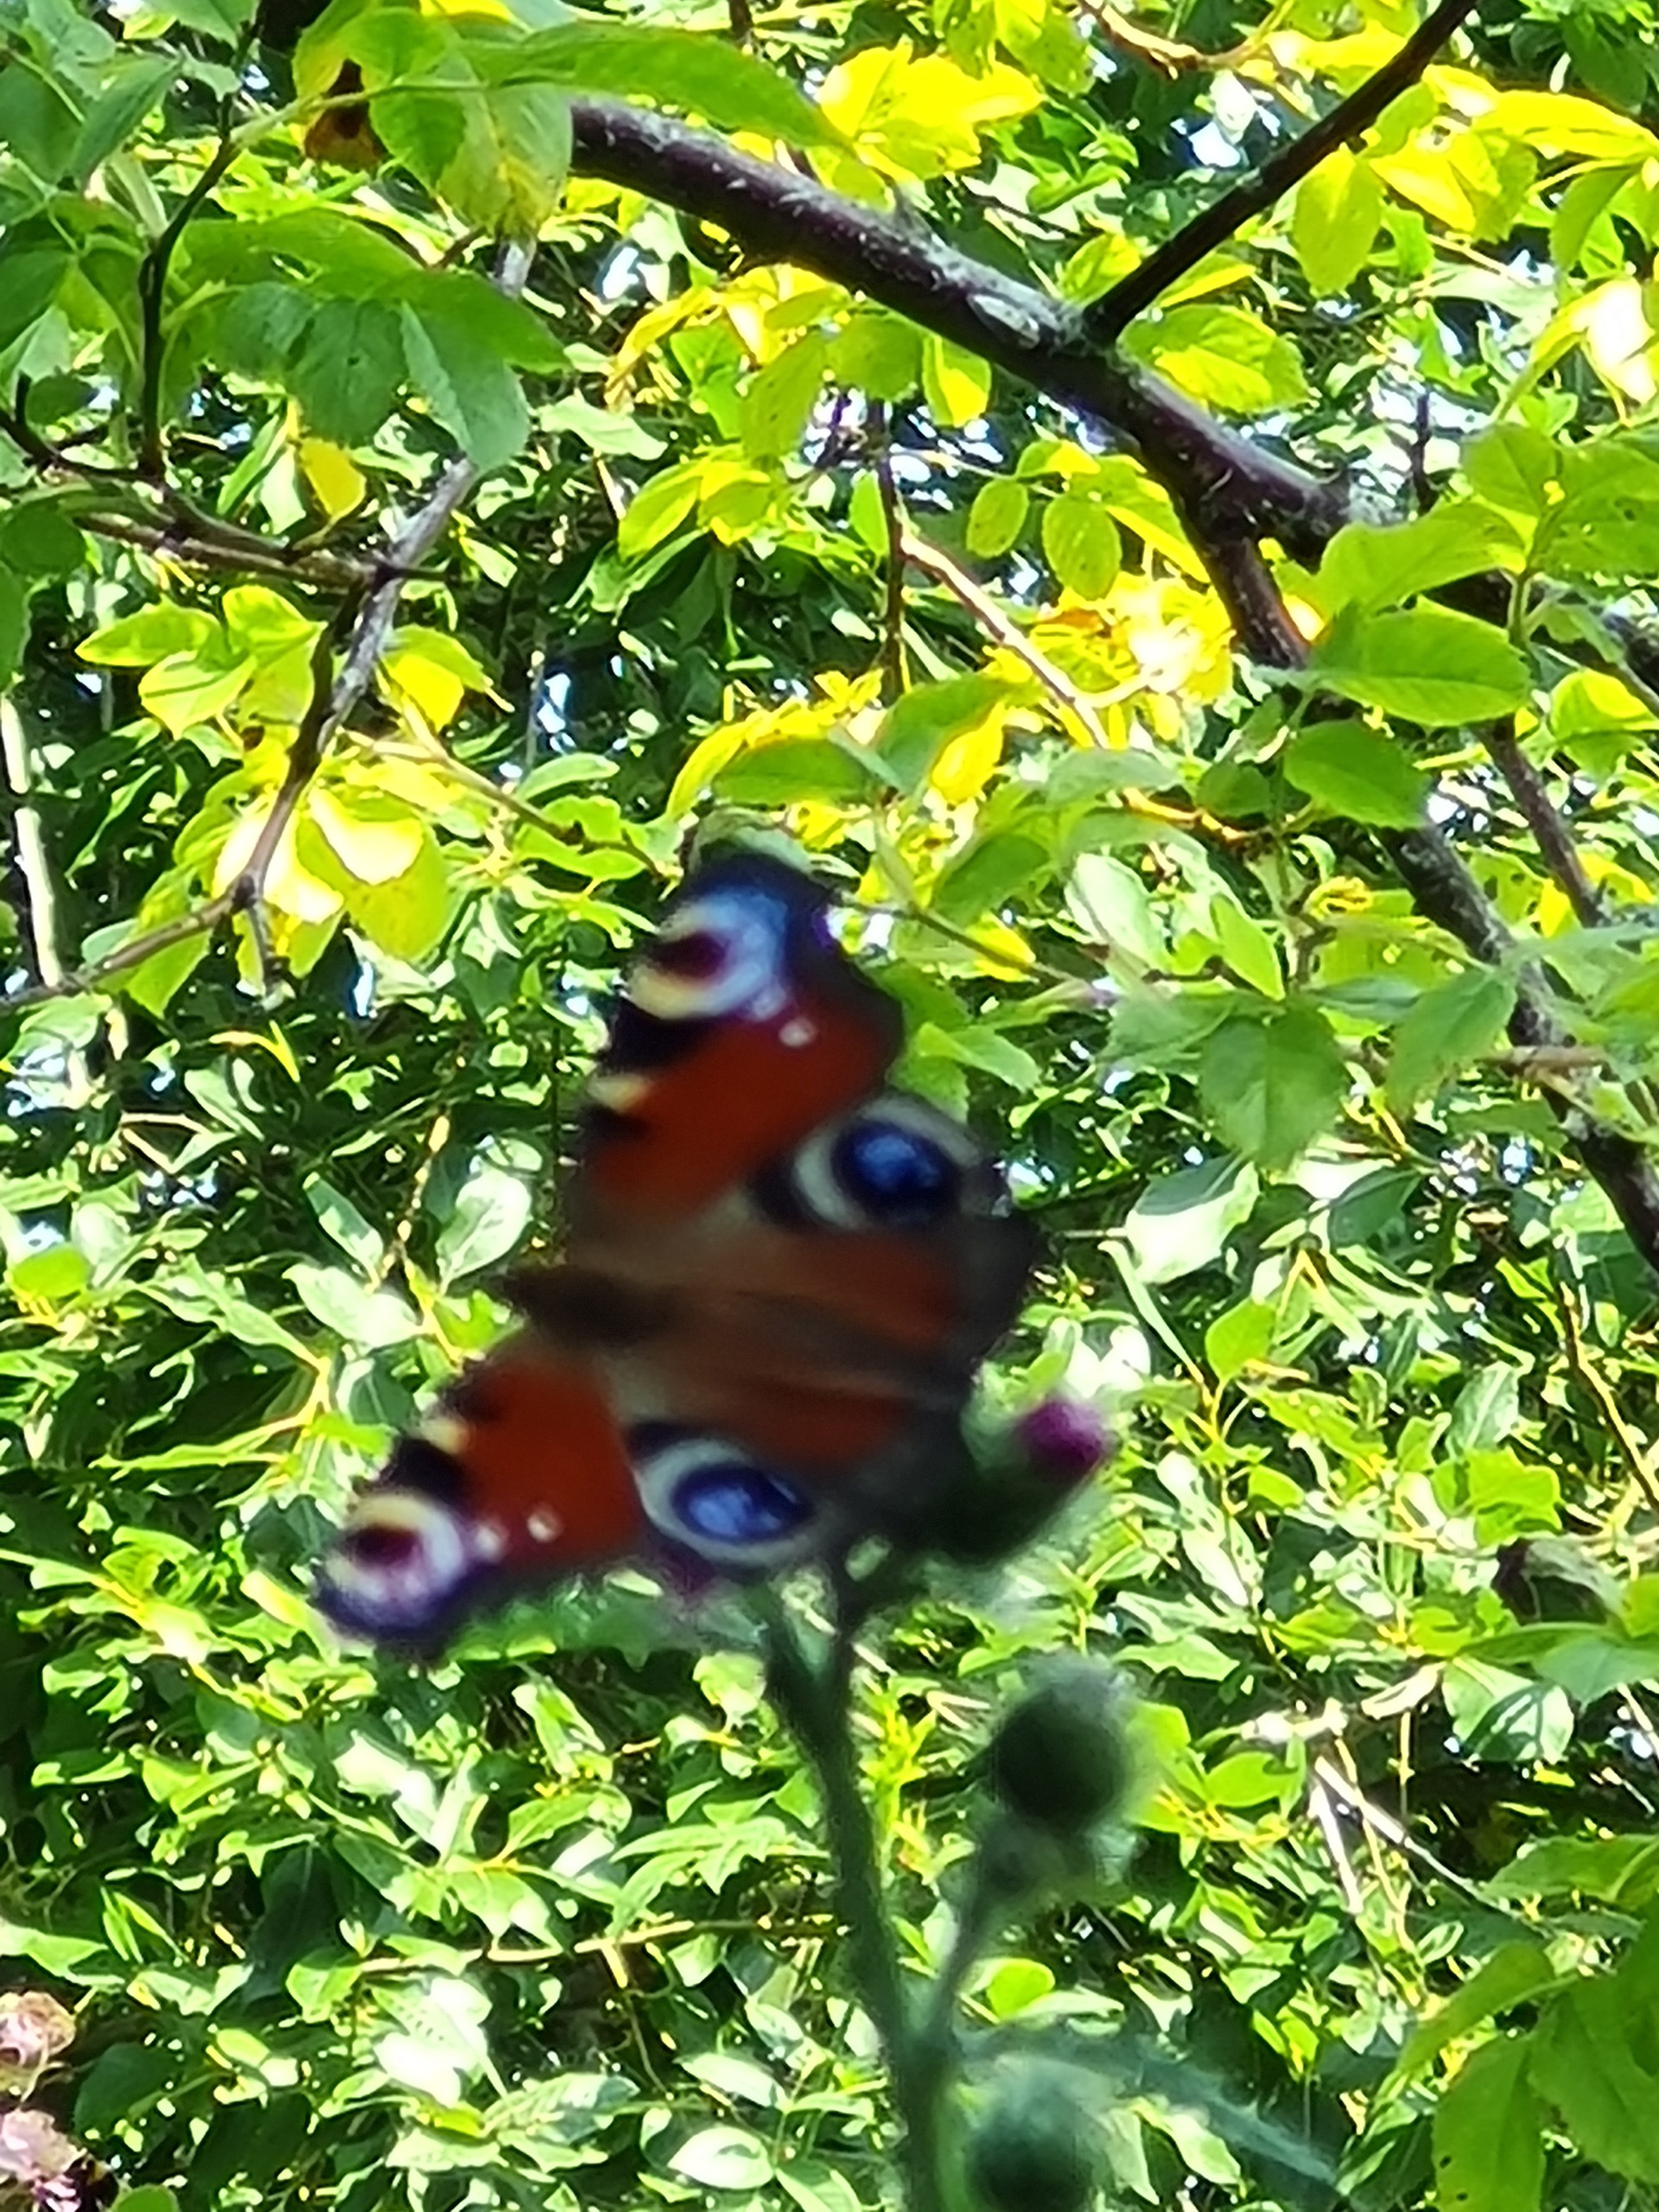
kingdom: Animalia
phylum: Arthropoda
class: Insecta
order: Lepidoptera
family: Nymphalidae
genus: Aglais
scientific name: Aglais io
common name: Dagpåfugleøje
